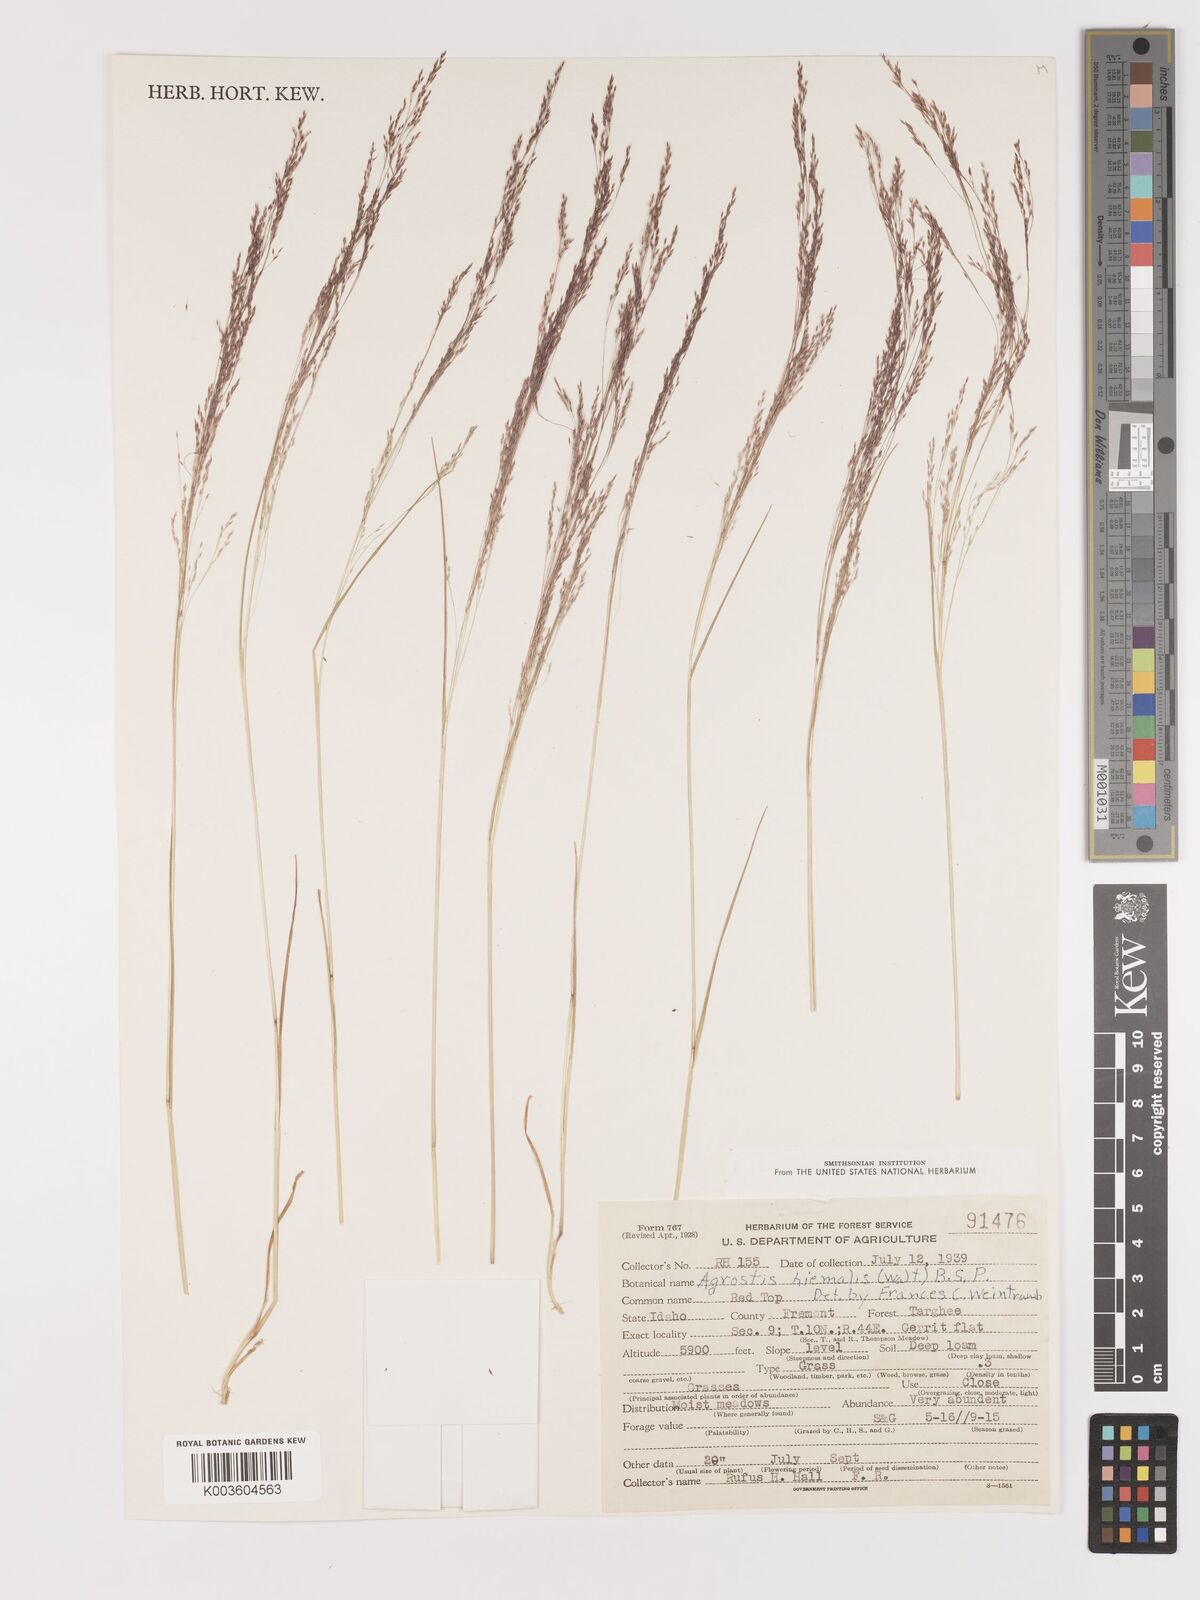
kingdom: Plantae
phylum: Tracheophyta
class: Liliopsida
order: Poales
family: Poaceae
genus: Agrostis
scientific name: Agrostis hyemalis
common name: Small bent
